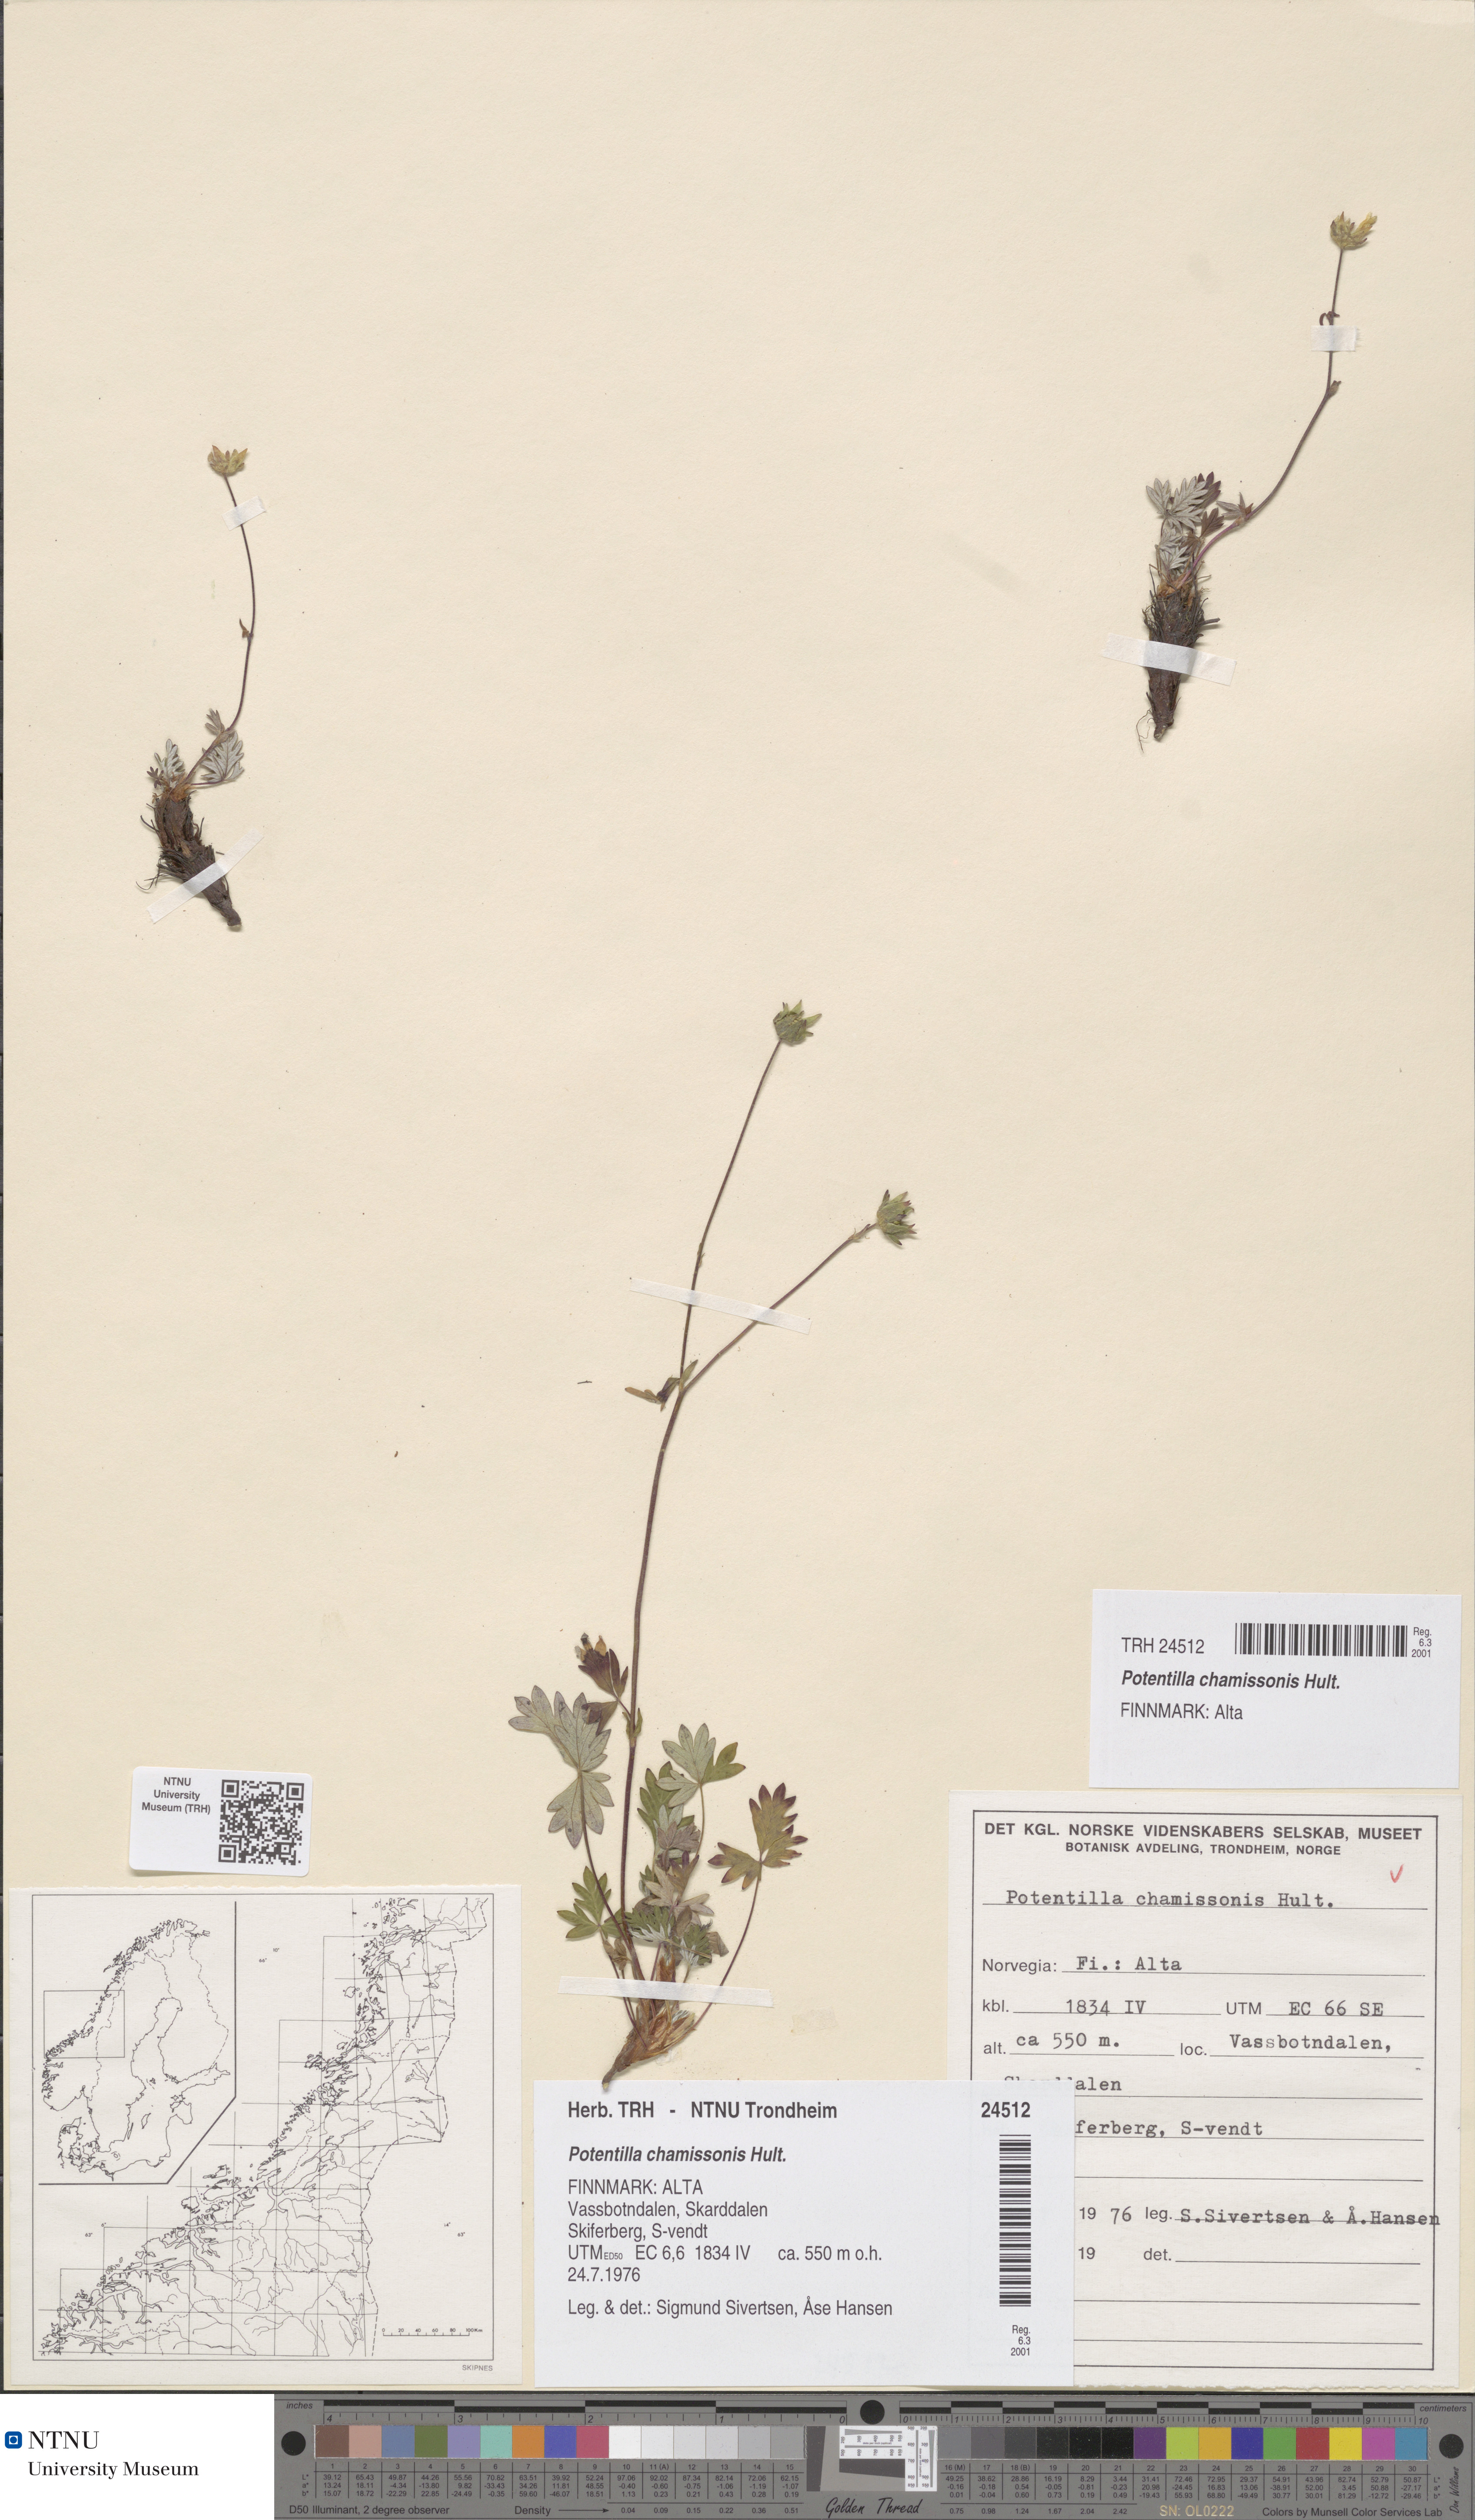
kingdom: Plantae
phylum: Tracheophyta
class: Magnoliopsida
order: Rosales
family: Rosaceae
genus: Potentilla
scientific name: Potentilla chamissonis
